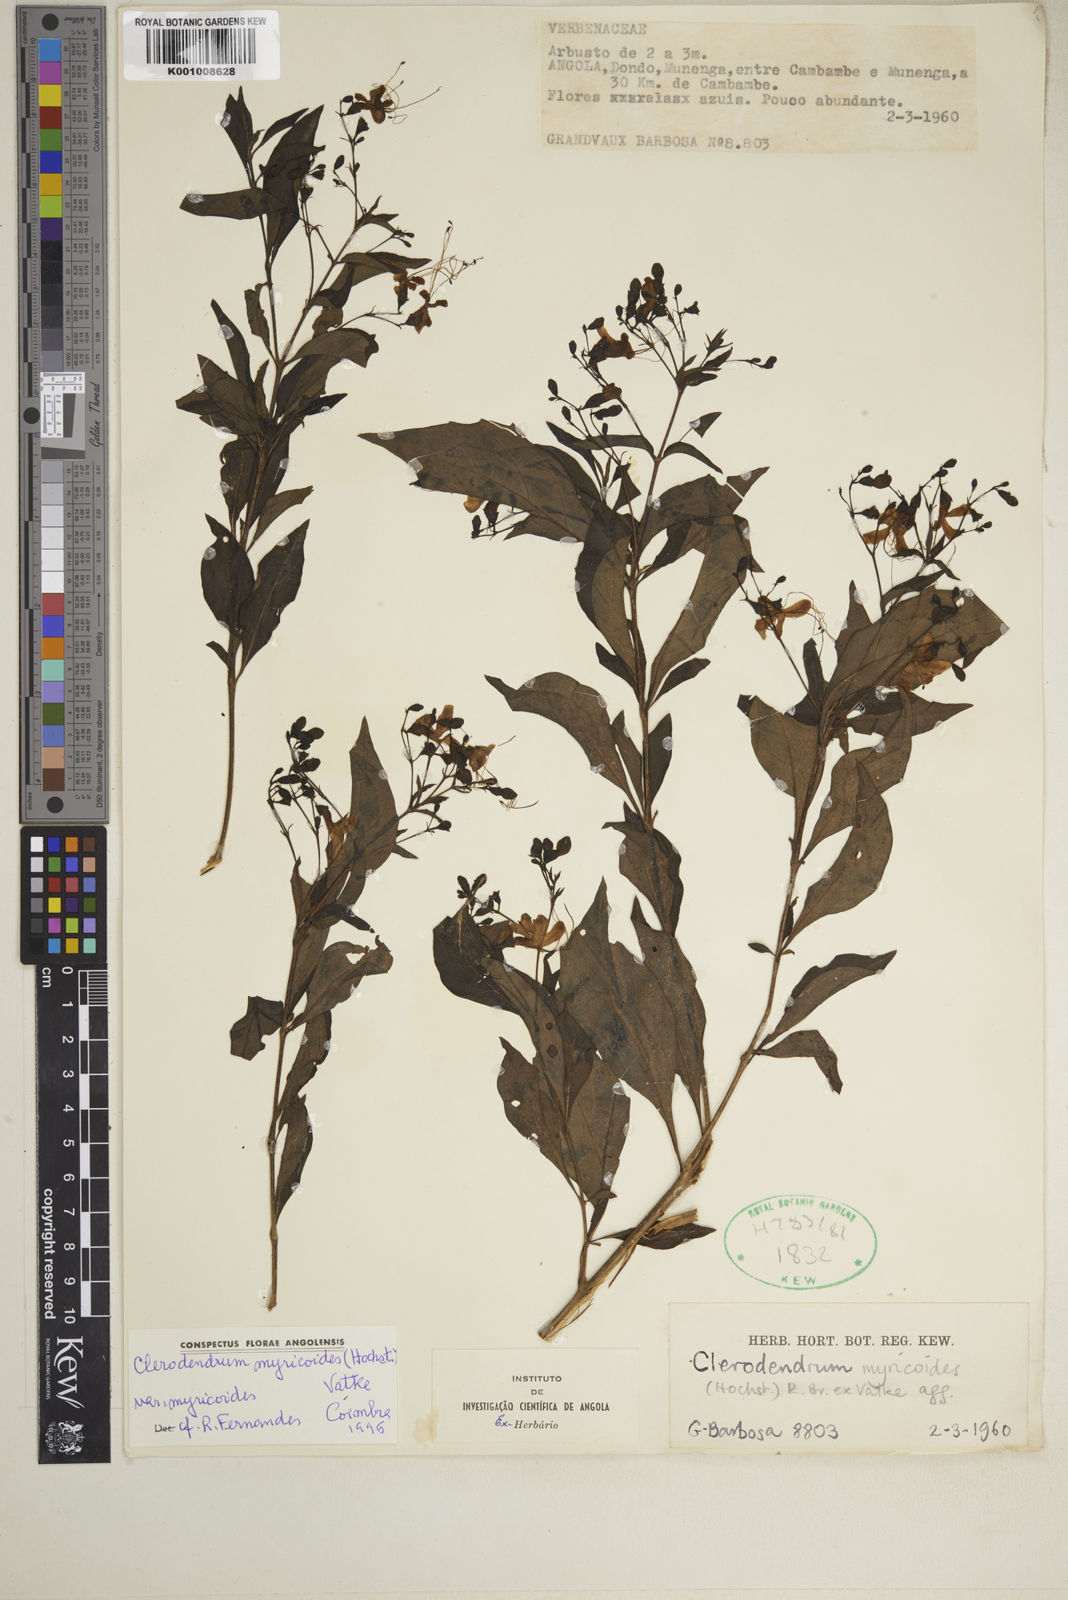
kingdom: Plantae
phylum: Tracheophyta
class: Magnoliopsida
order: Lamiales
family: Lamiaceae
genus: Rotheca
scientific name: Rotheca myricoides
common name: Cats-whiskers
